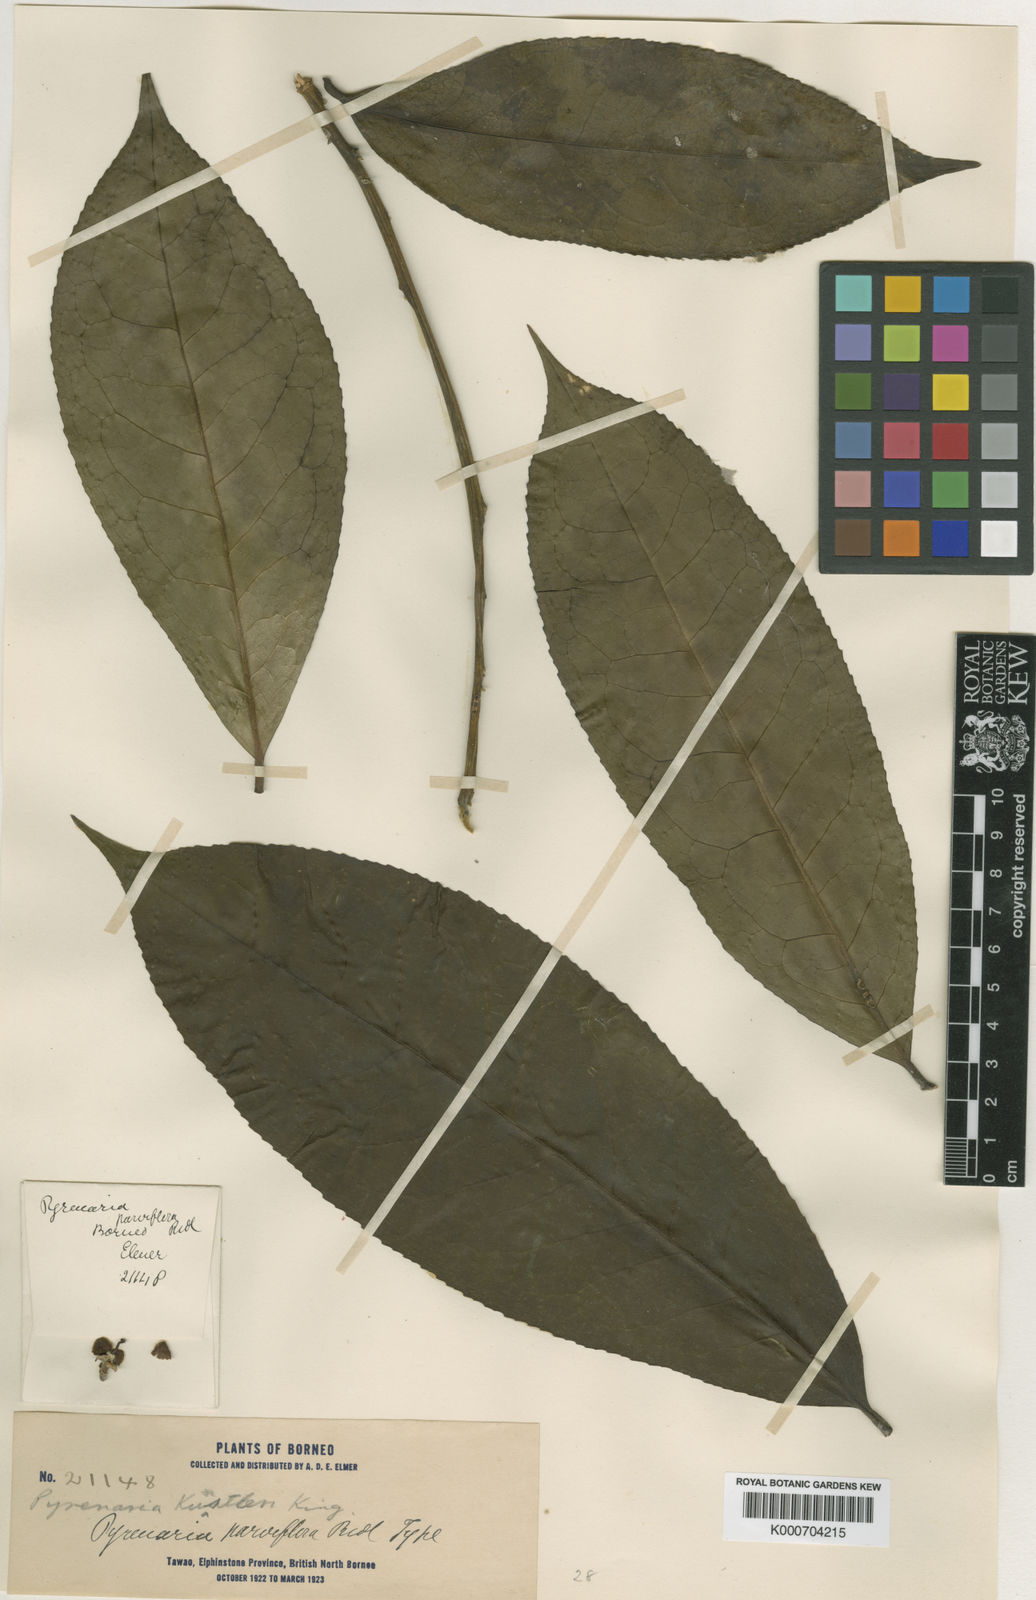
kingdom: Plantae
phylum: Tracheophyta
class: Magnoliopsida
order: Ericales
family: Theaceae
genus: Pyrenaria
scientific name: Pyrenaria serrata
